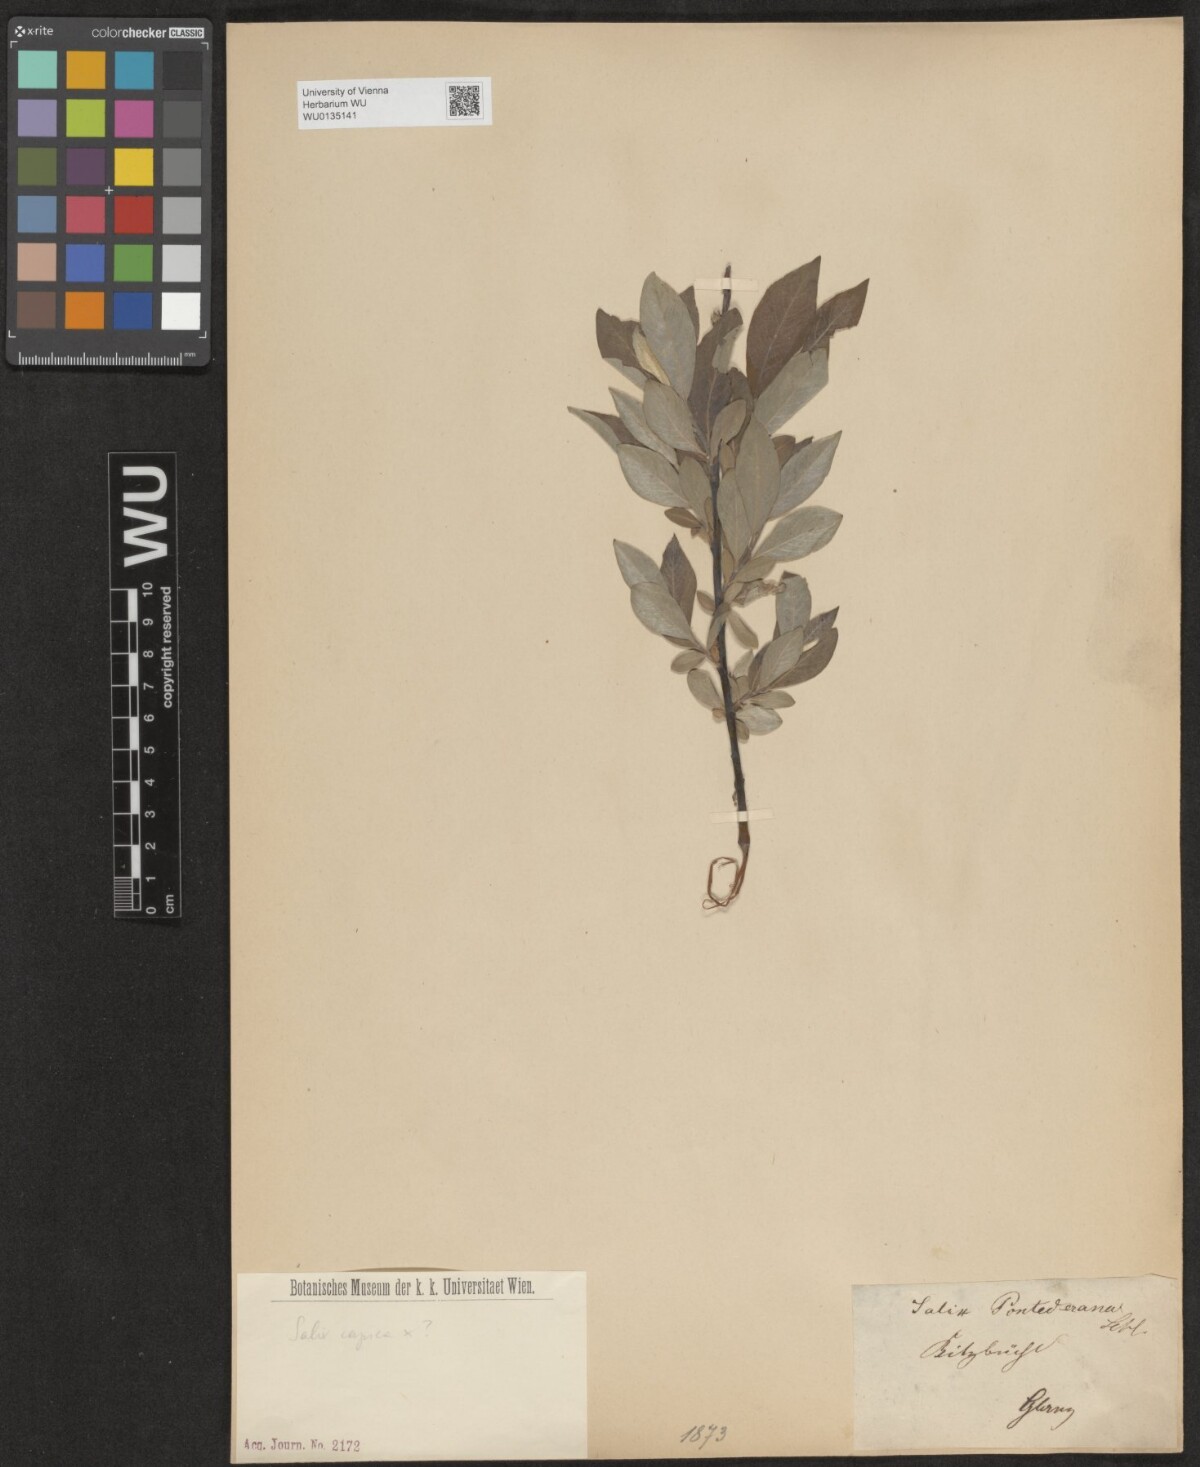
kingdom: Plantae
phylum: Tracheophyta
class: Magnoliopsida
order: Malpighiales
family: Salicaceae
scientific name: Salicaceae
